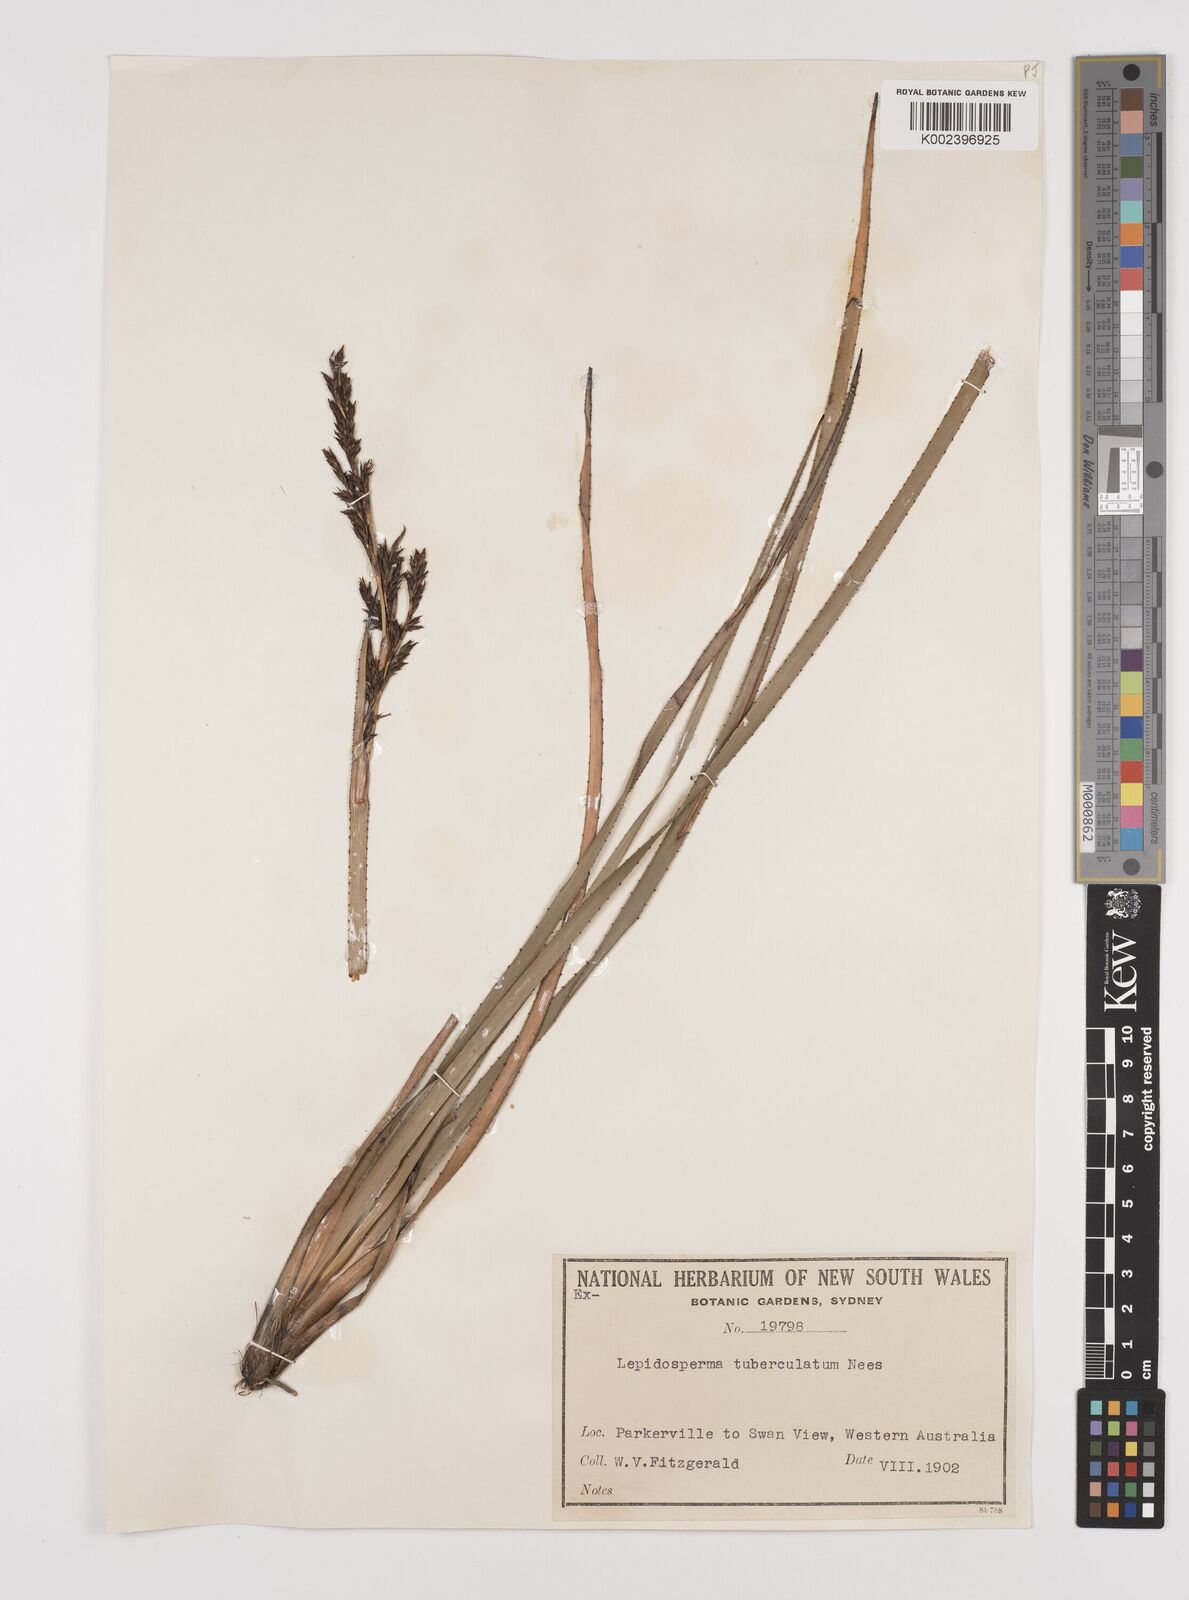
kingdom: Plantae
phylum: Tracheophyta
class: Liliopsida
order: Poales
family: Cyperaceae
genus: Lepidosperma
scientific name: Lepidosperma tuberculatum
